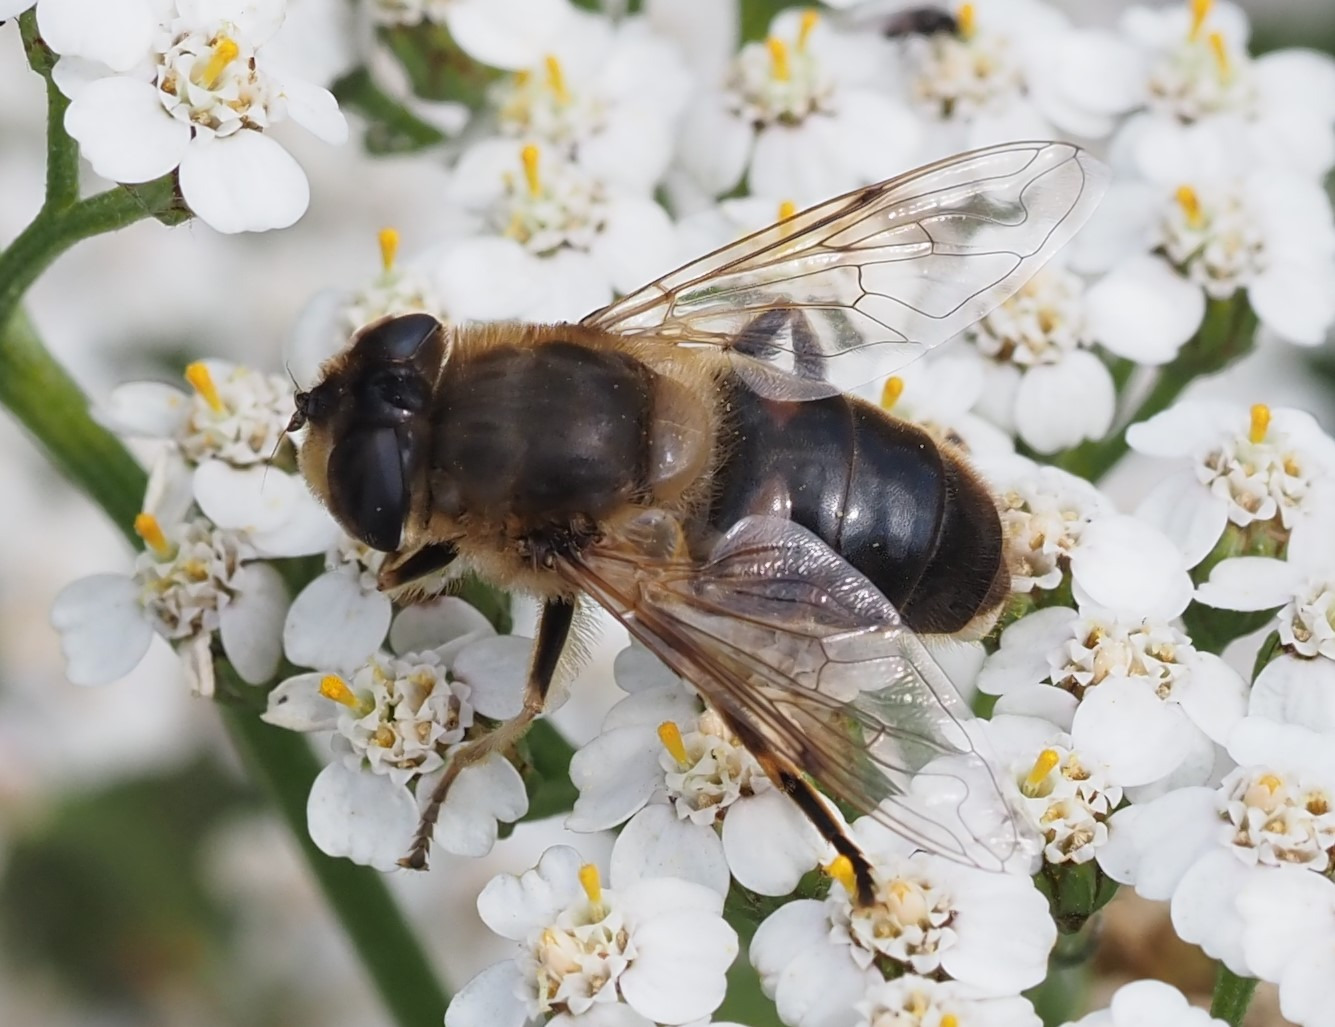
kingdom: Animalia
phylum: Arthropoda
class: Insecta
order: Diptera
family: Syrphidae
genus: Eristalis
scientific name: Eristalis tenax
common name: Droneflue
